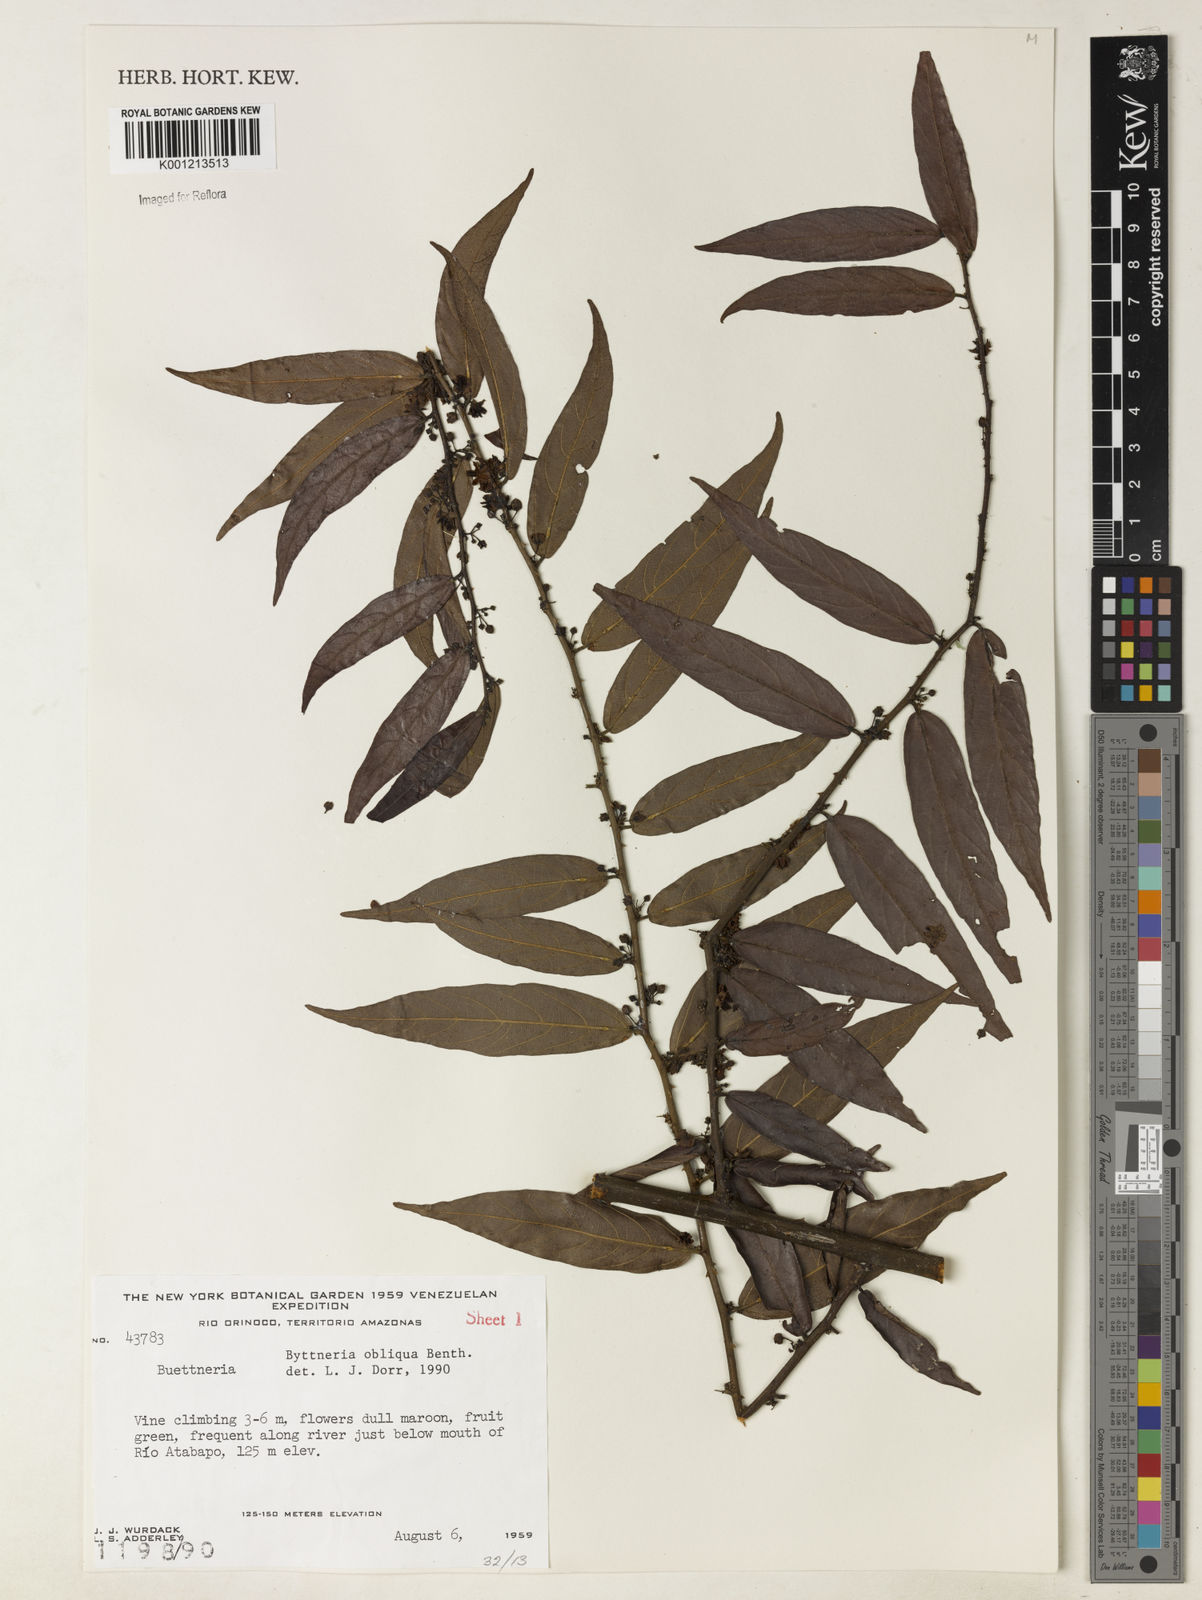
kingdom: Plantae
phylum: Tracheophyta
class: Magnoliopsida
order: Malvales
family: Malvaceae
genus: Byttneria
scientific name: Byttneria obliqua
